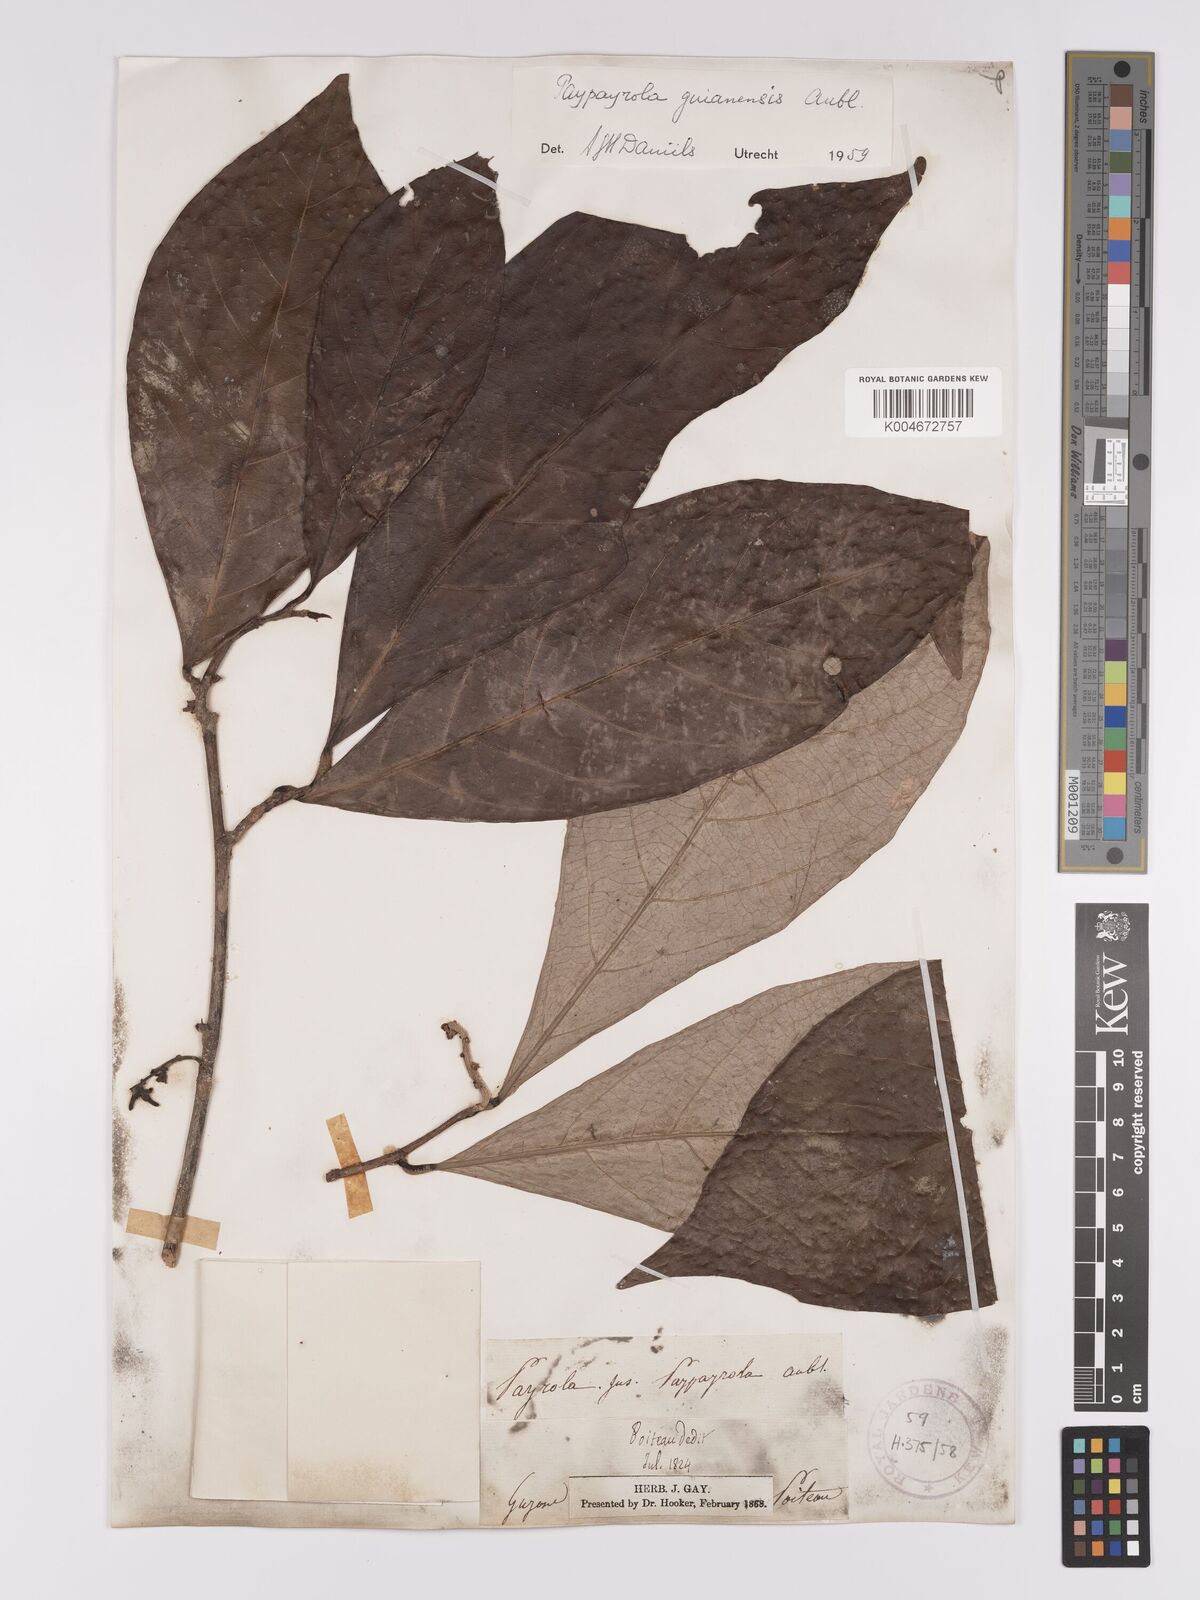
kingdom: Plantae
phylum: Tracheophyta
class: Magnoliopsida
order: Malpighiales
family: Violaceae
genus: Paypayrola
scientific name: Paypayrola guianensis
